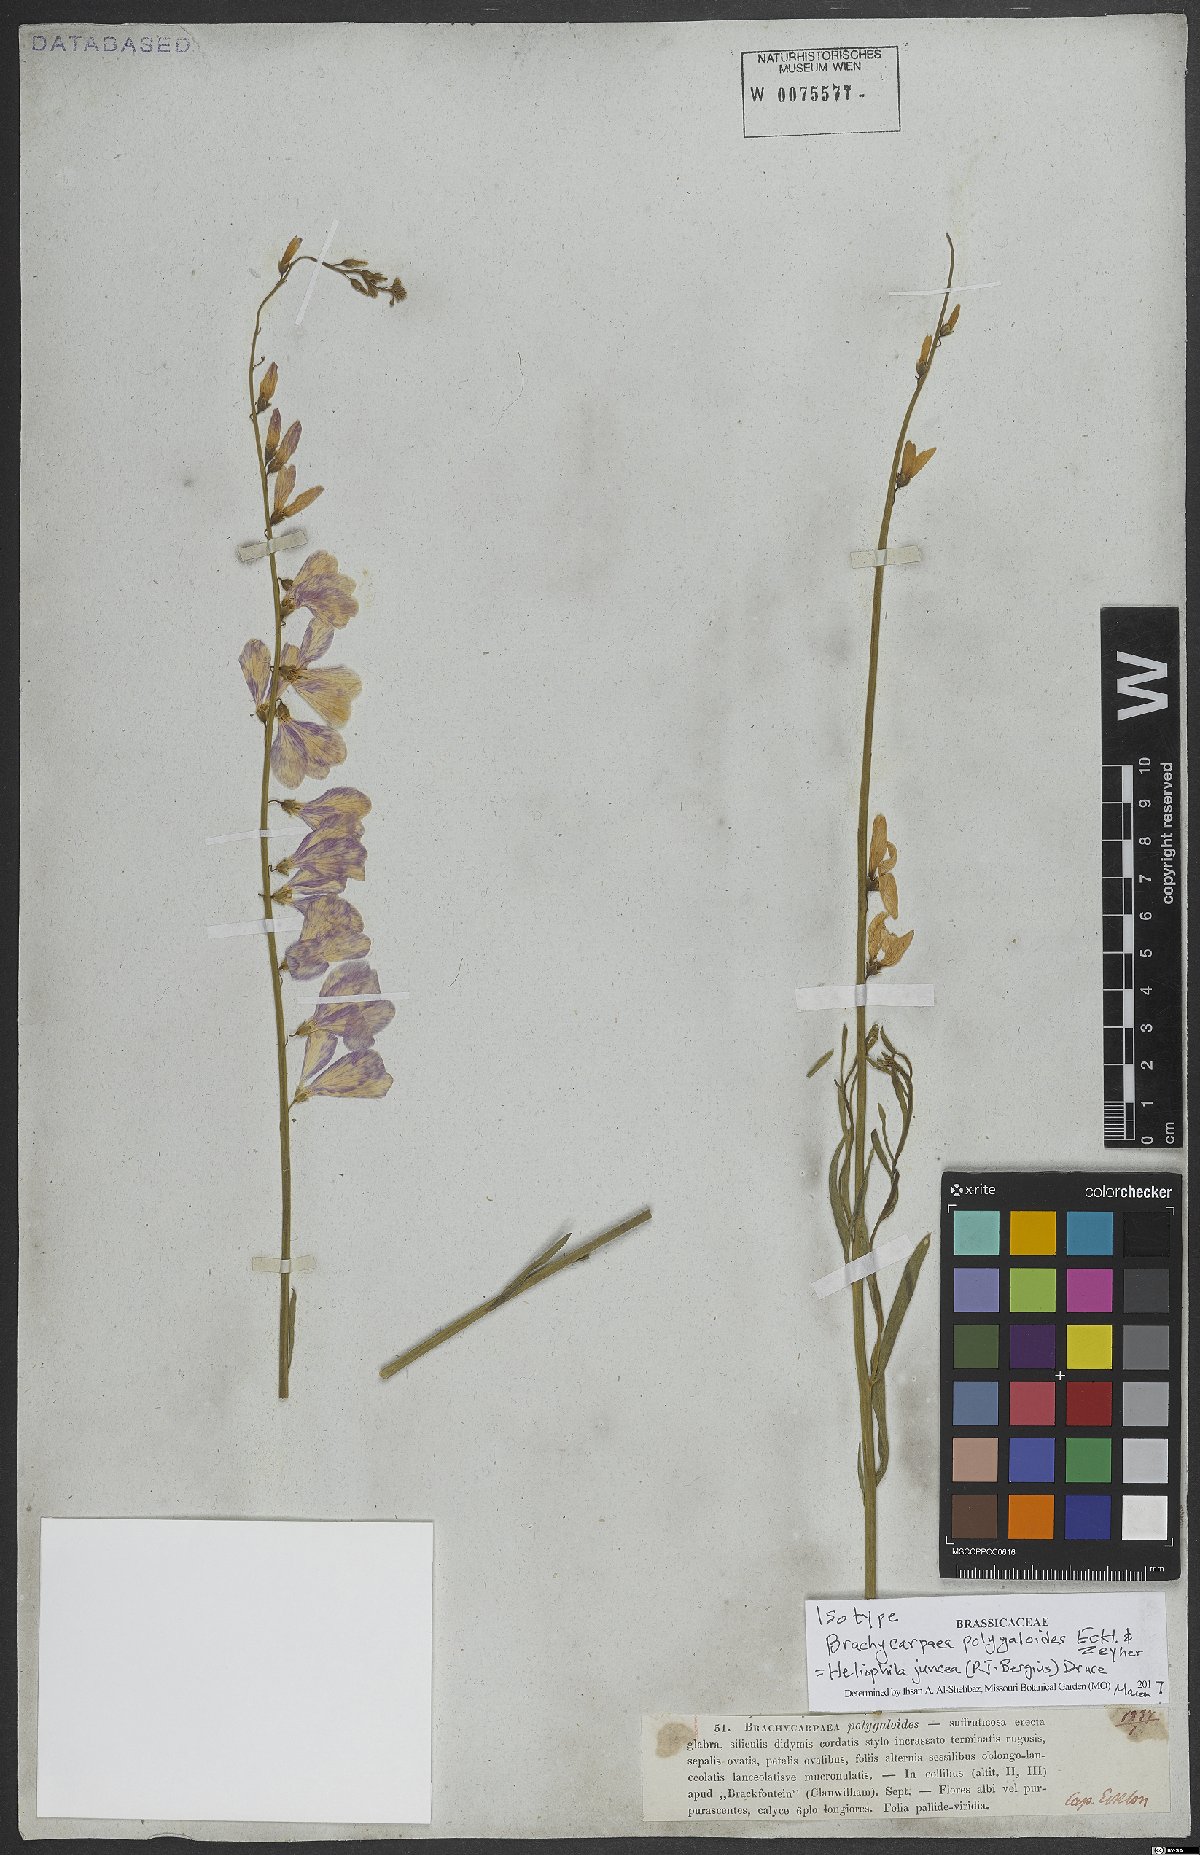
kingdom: Plantae
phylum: Tracheophyta
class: Magnoliopsida
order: Brassicales
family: Brassicaceae
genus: Heliophila
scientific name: Heliophila juncea
